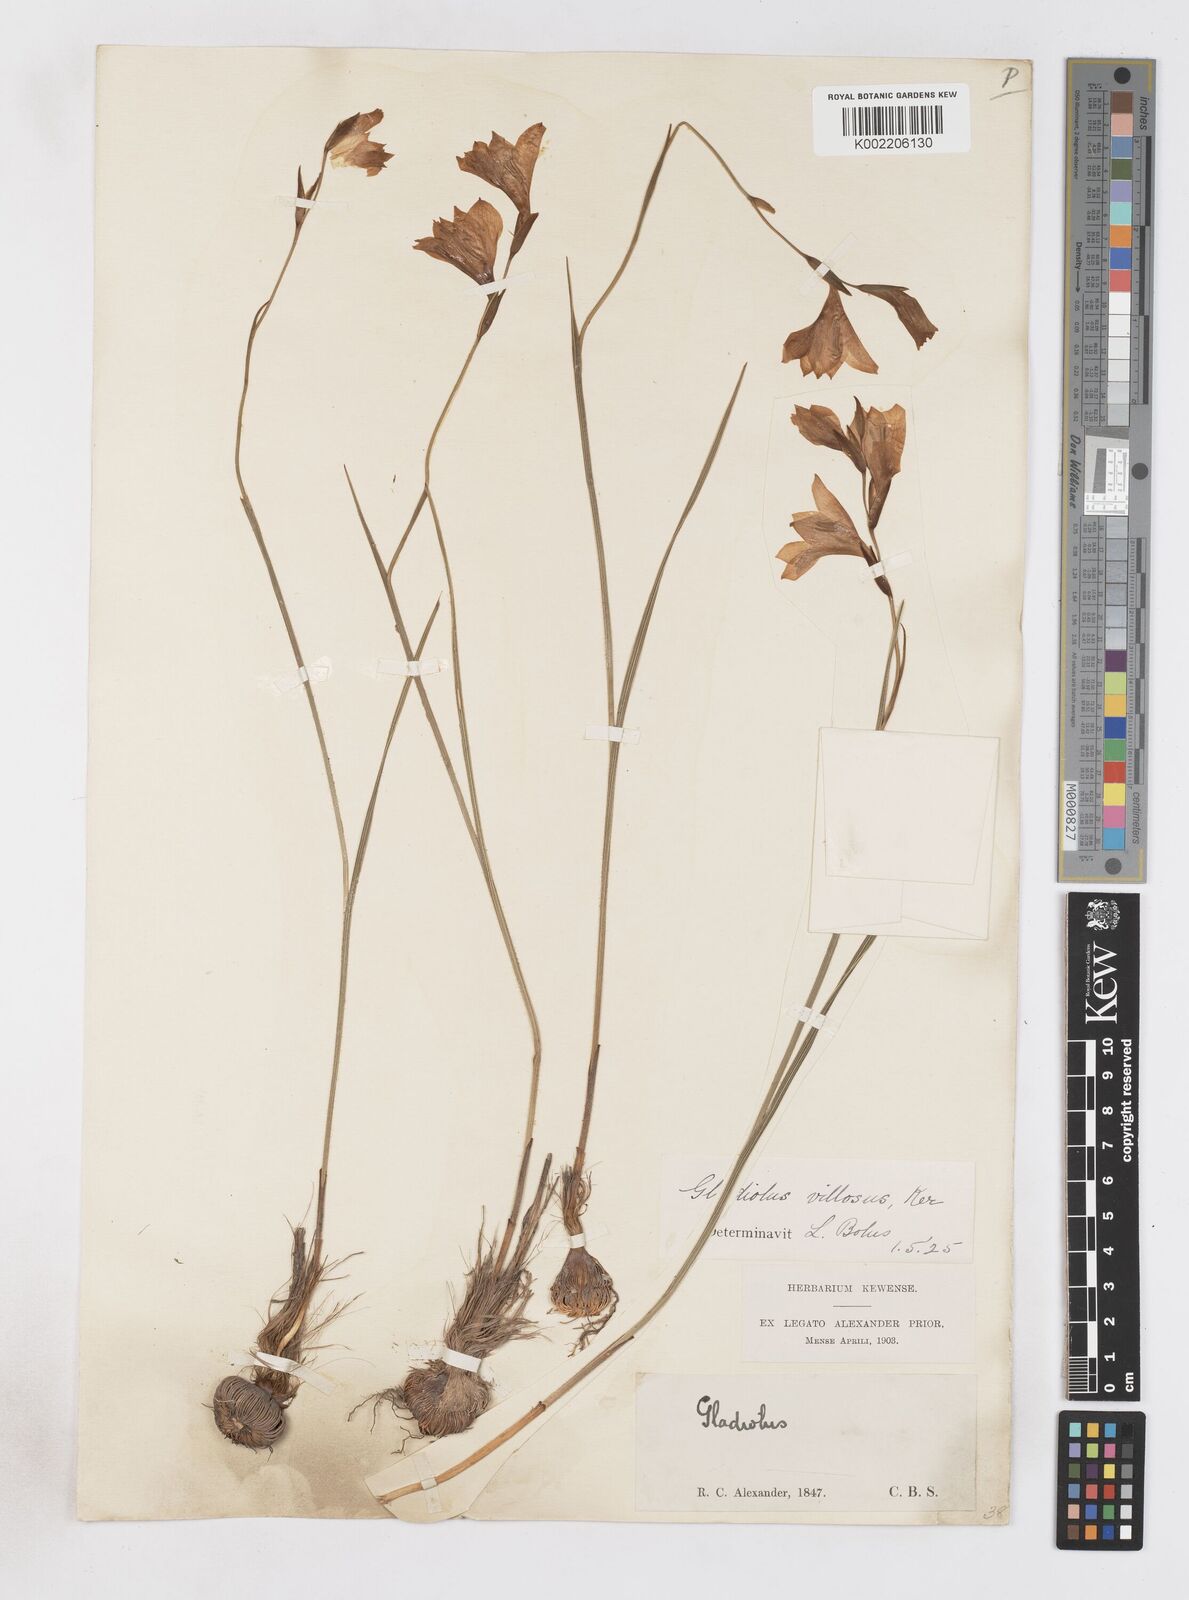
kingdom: Plantae
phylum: Tracheophyta
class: Liliopsida
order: Asparagales
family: Iridaceae
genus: Gladiolus
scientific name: Gladiolus hirsutus
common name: Small pink afrikaner
